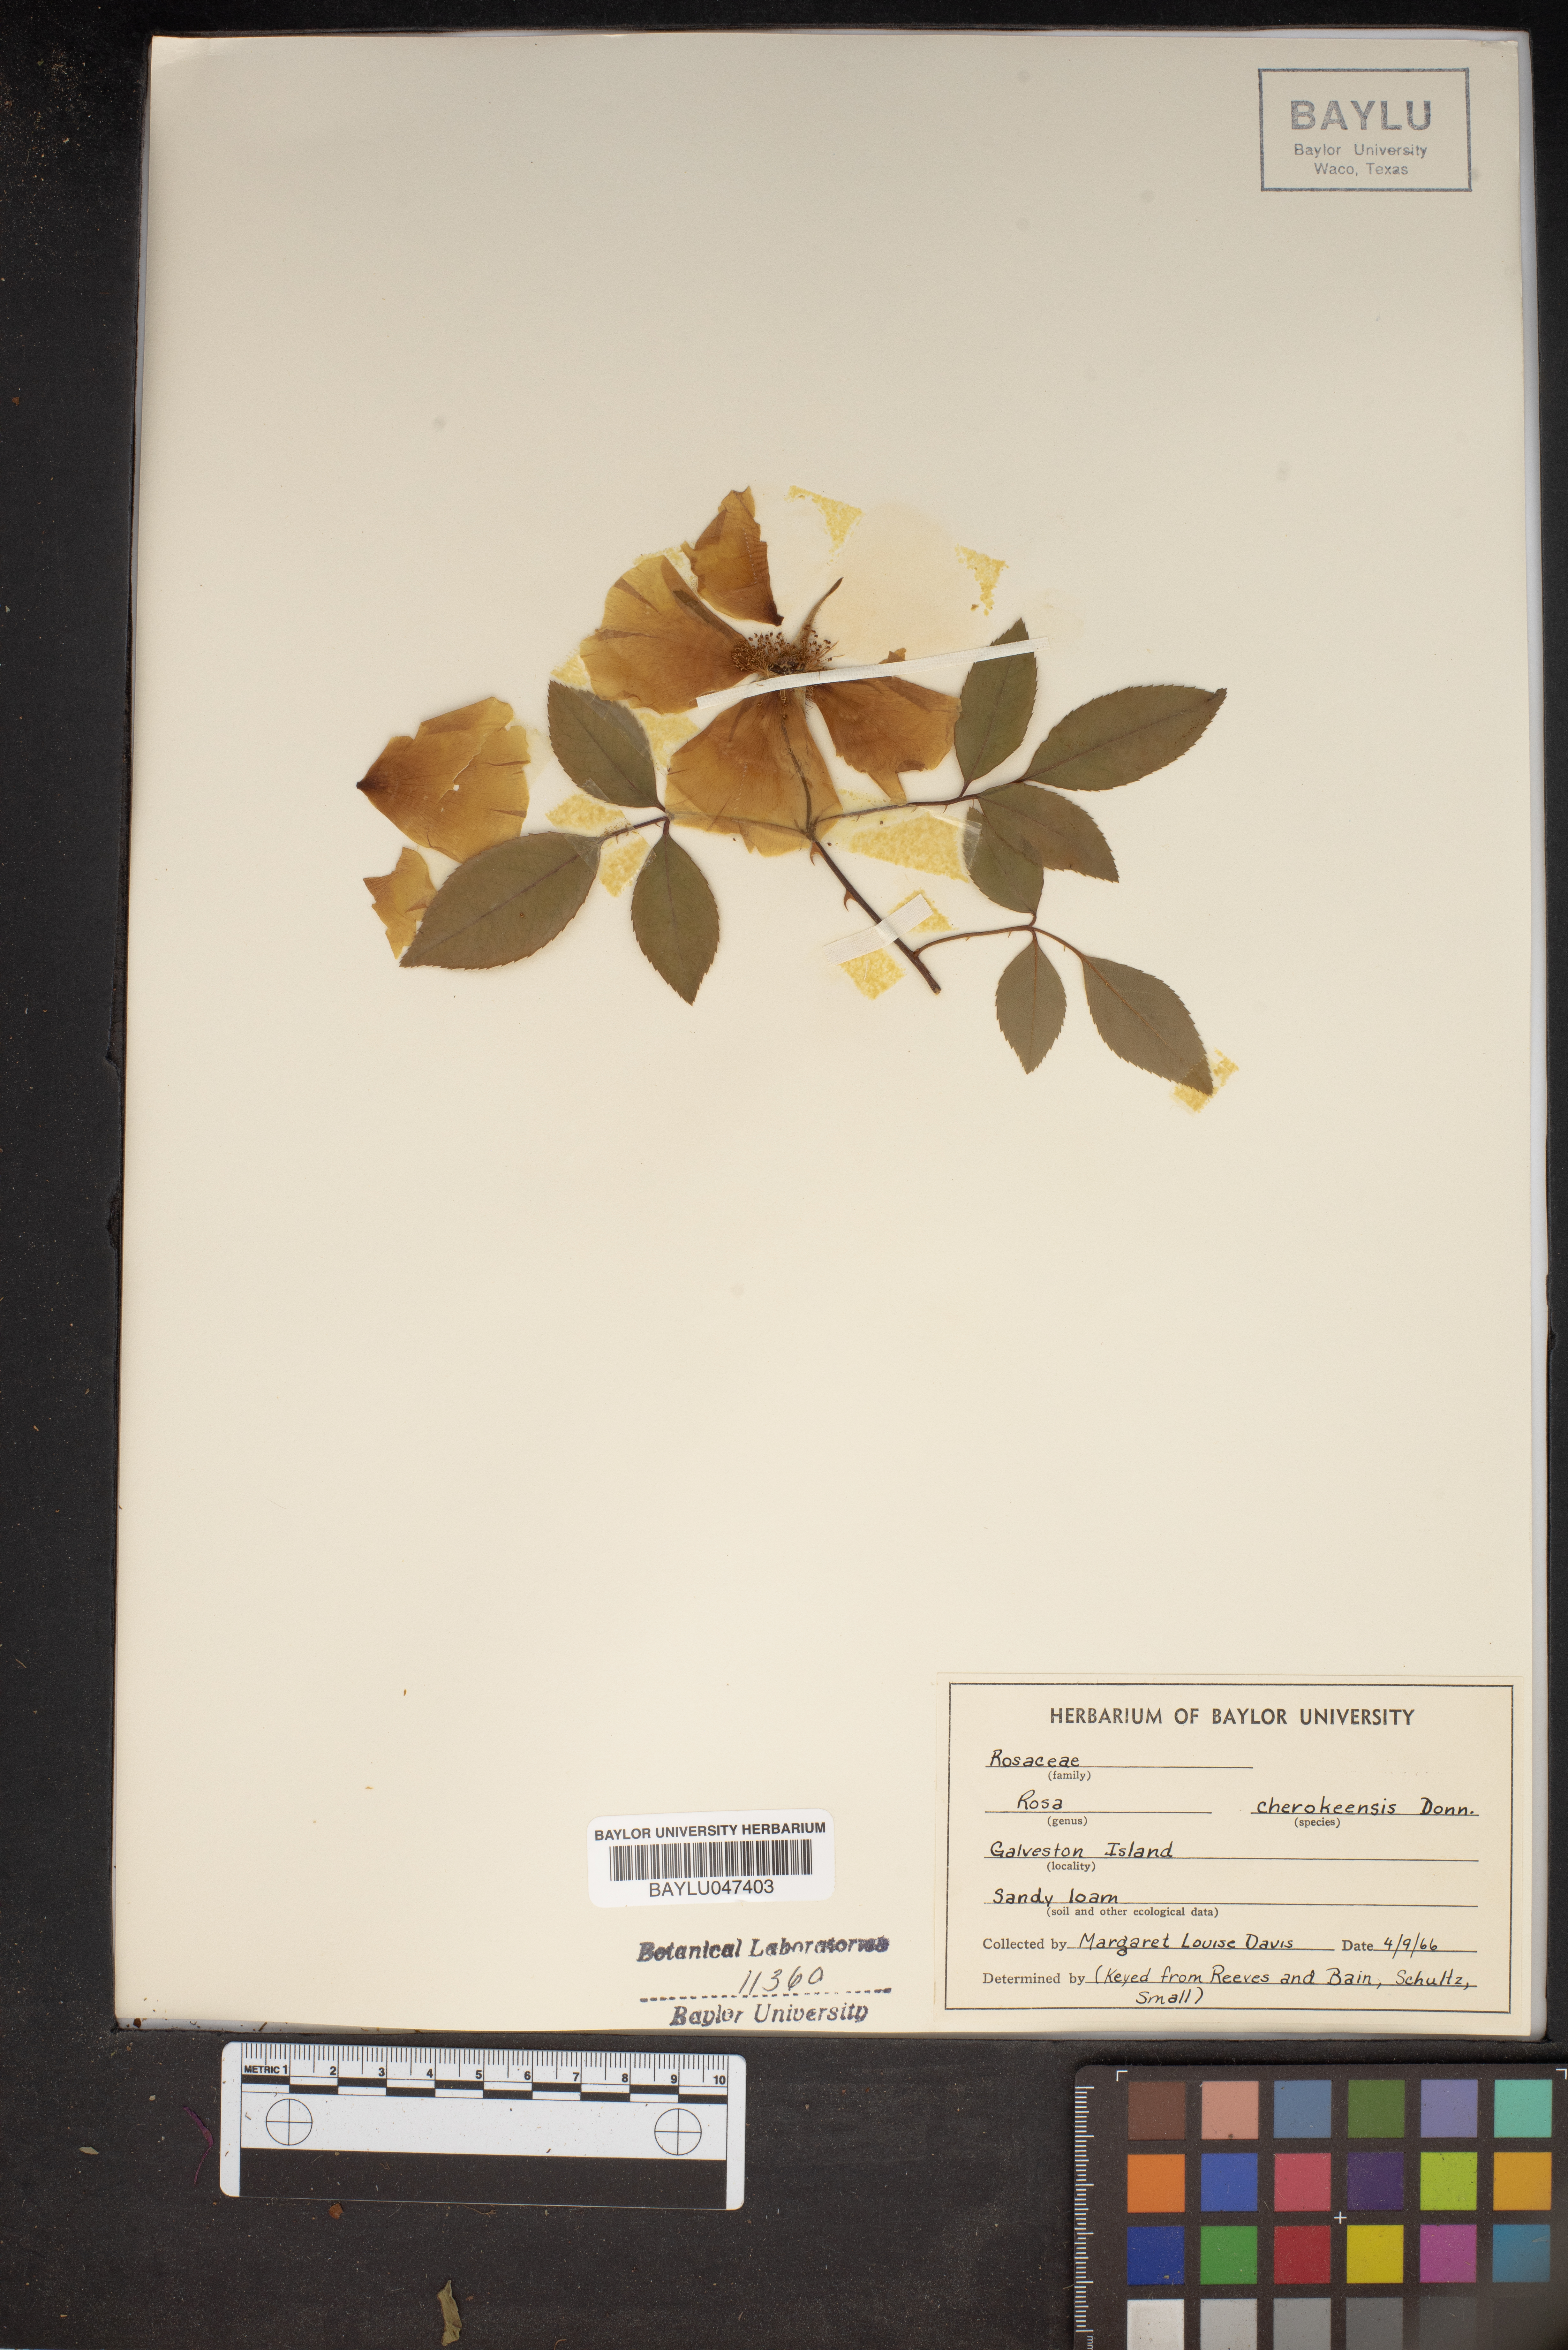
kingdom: Plantae
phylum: Tracheophyta
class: Magnoliopsida
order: Rosales
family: Rosaceae
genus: Rosa
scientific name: Rosa laevigata
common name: Cherokee rose
